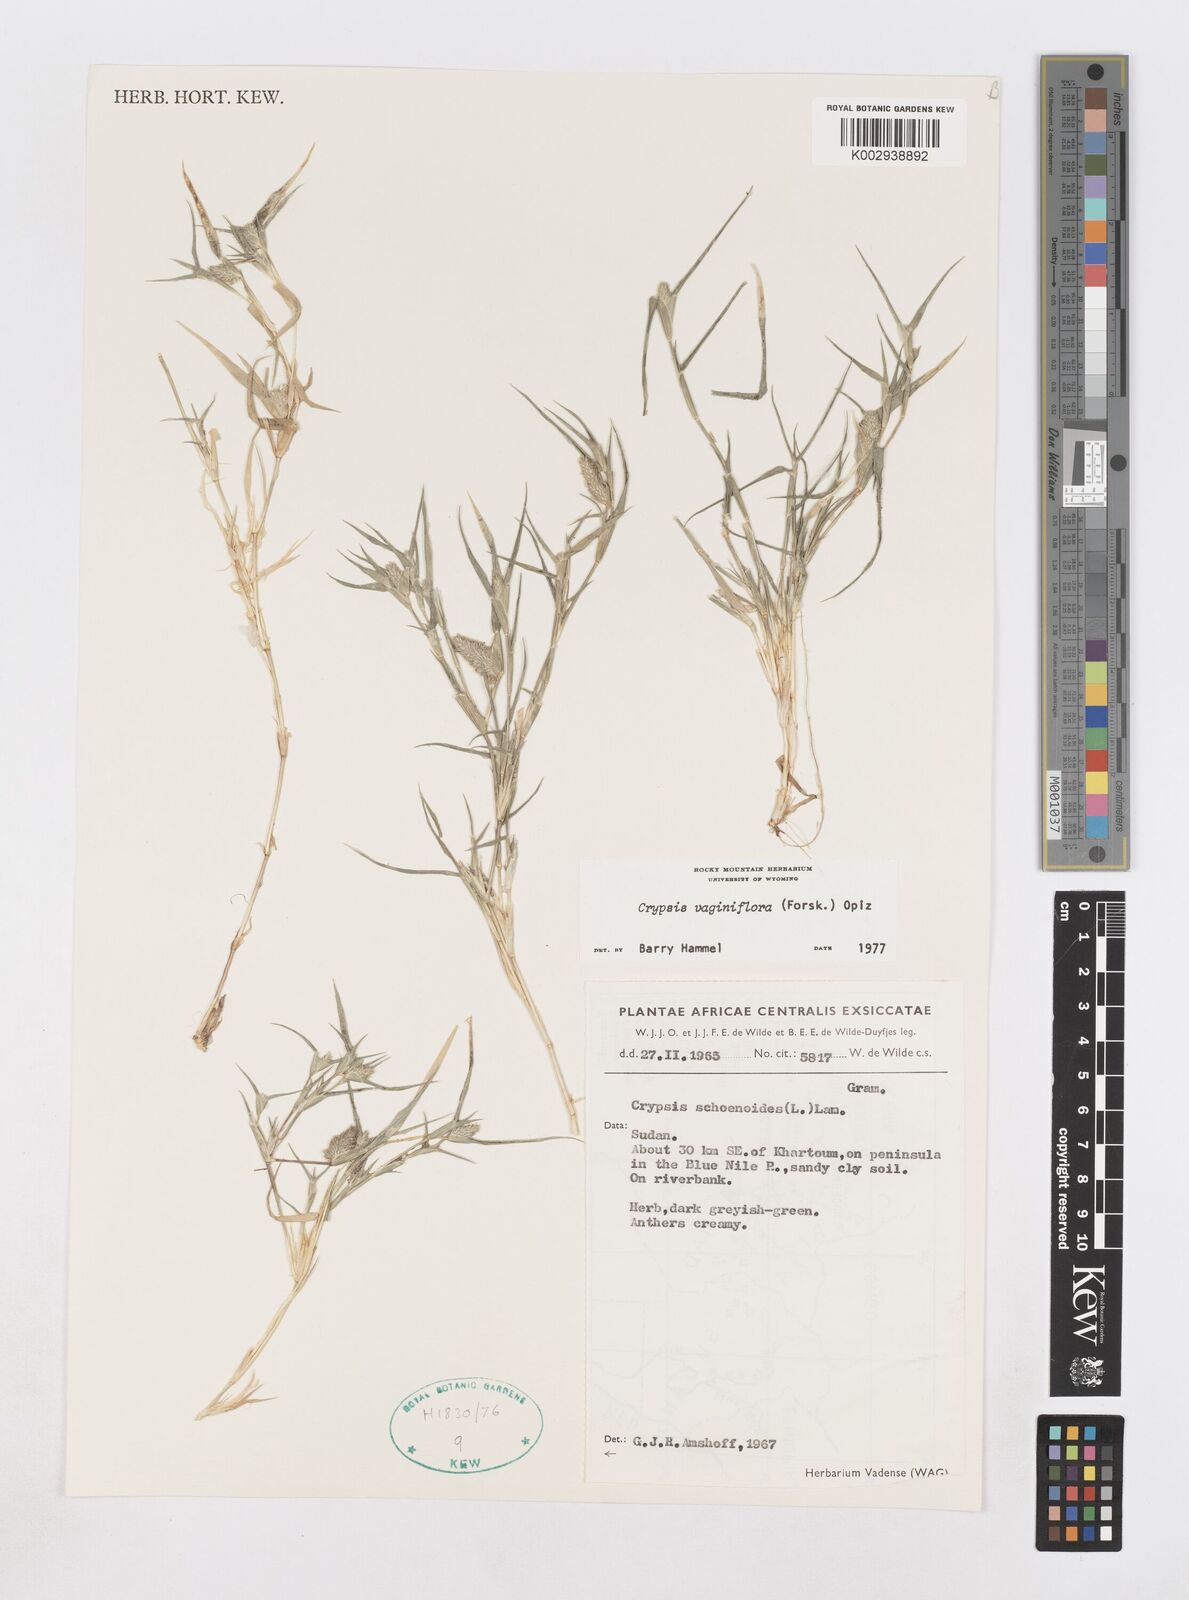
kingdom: Plantae
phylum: Tracheophyta
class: Liliopsida
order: Poales
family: Poaceae
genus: Sporobolus
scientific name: Sporobolus niliacus
